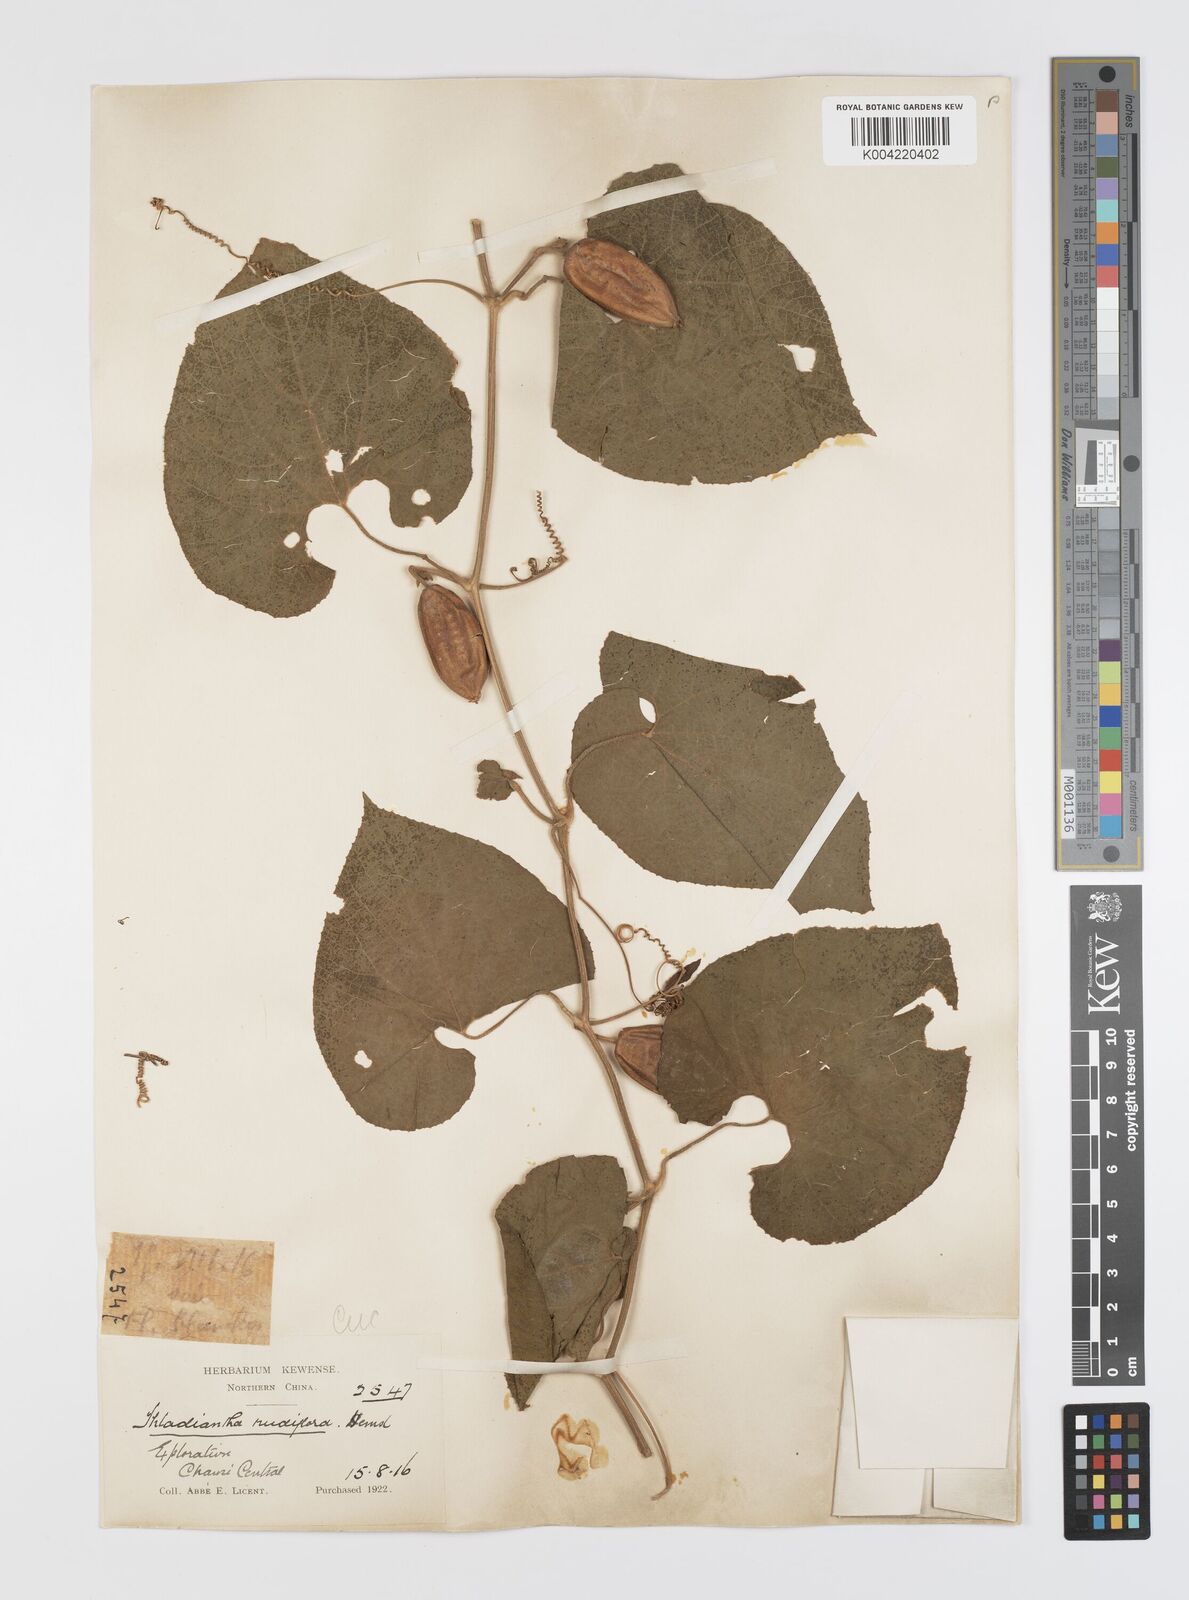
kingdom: Plantae
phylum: Tracheophyta
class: Magnoliopsida
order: Cucurbitales
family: Cucurbitaceae
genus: Thladiantha
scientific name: Thladiantha nudiflora
